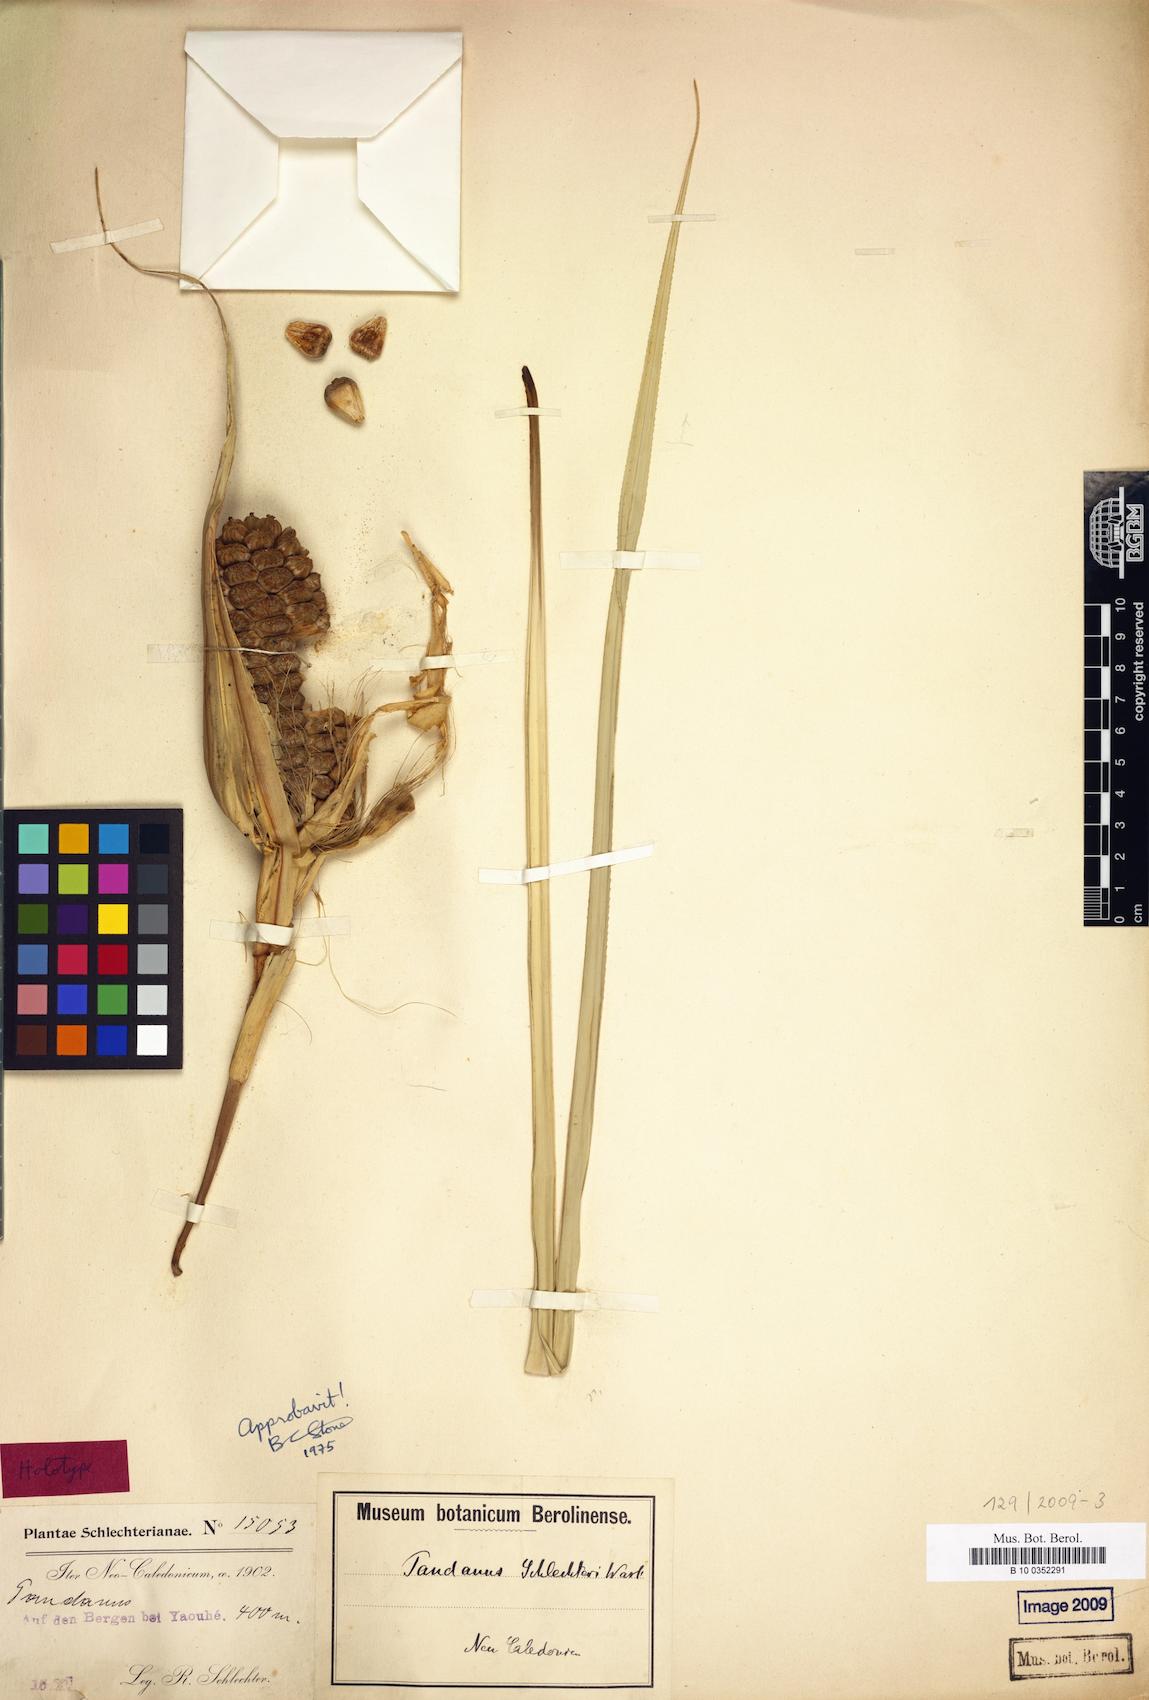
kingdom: Plantae
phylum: Tracheophyta
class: Liliopsida
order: Pandanales
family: Pandanaceae
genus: Pandanus
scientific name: Pandanus decumbens
